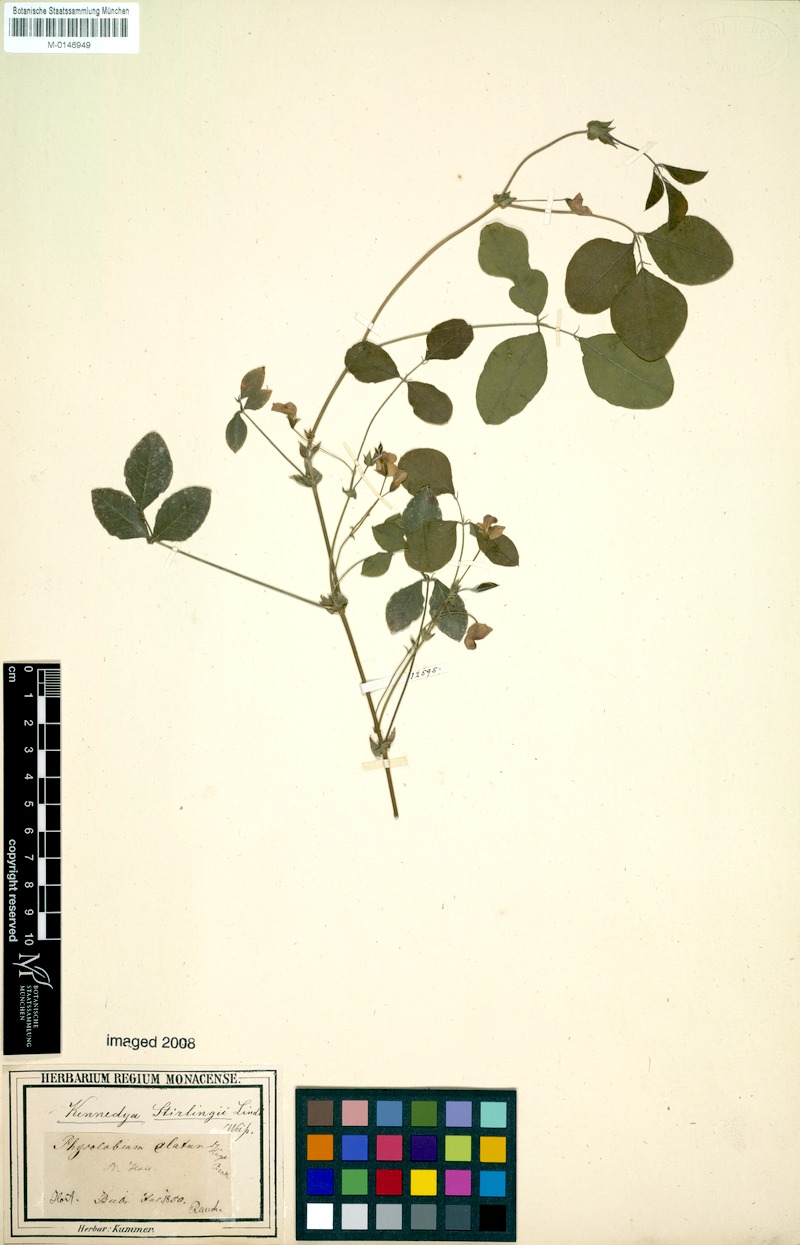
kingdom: Plantae
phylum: Tracheophyta
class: Magnoliopsida
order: Fabales
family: Fabaceae
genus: Kennedia
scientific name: Kennedia stirlingii
